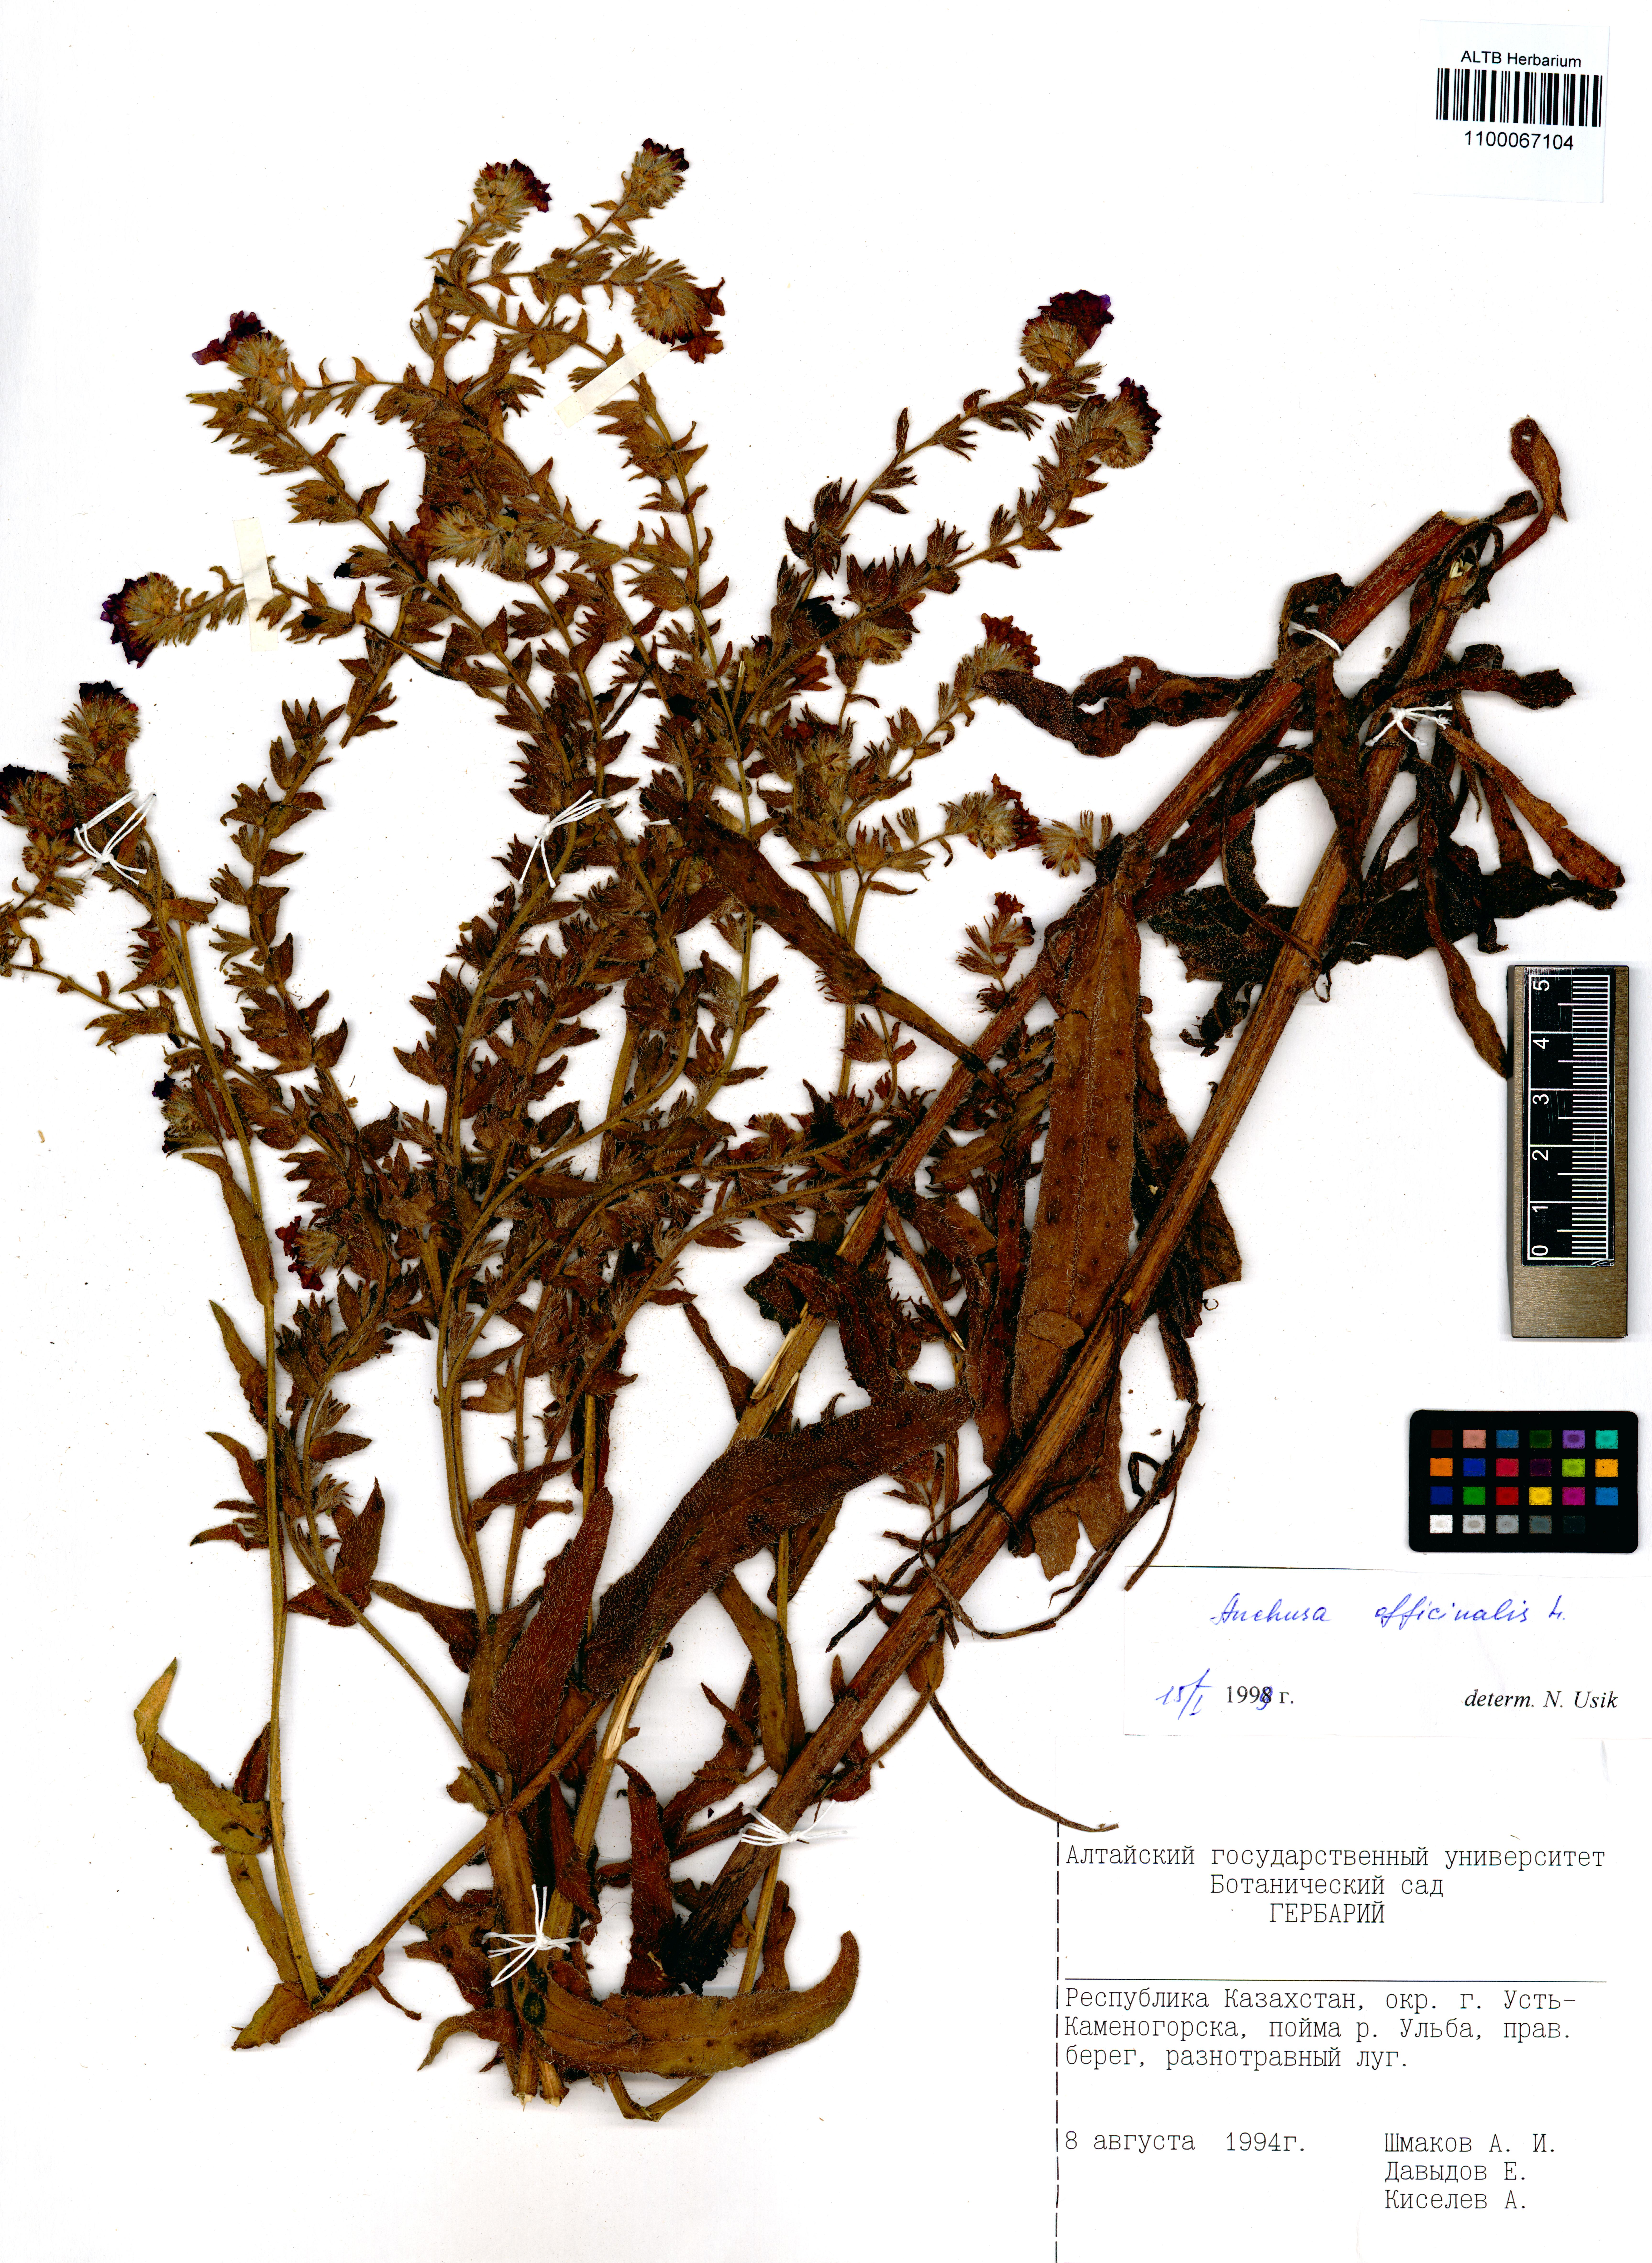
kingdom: Plantae
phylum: Tracheophyta
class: Magnoliopsida
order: Boraginales
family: Boraginaceae
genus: Anchusa
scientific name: Anchusa officinalis
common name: Alkanet
